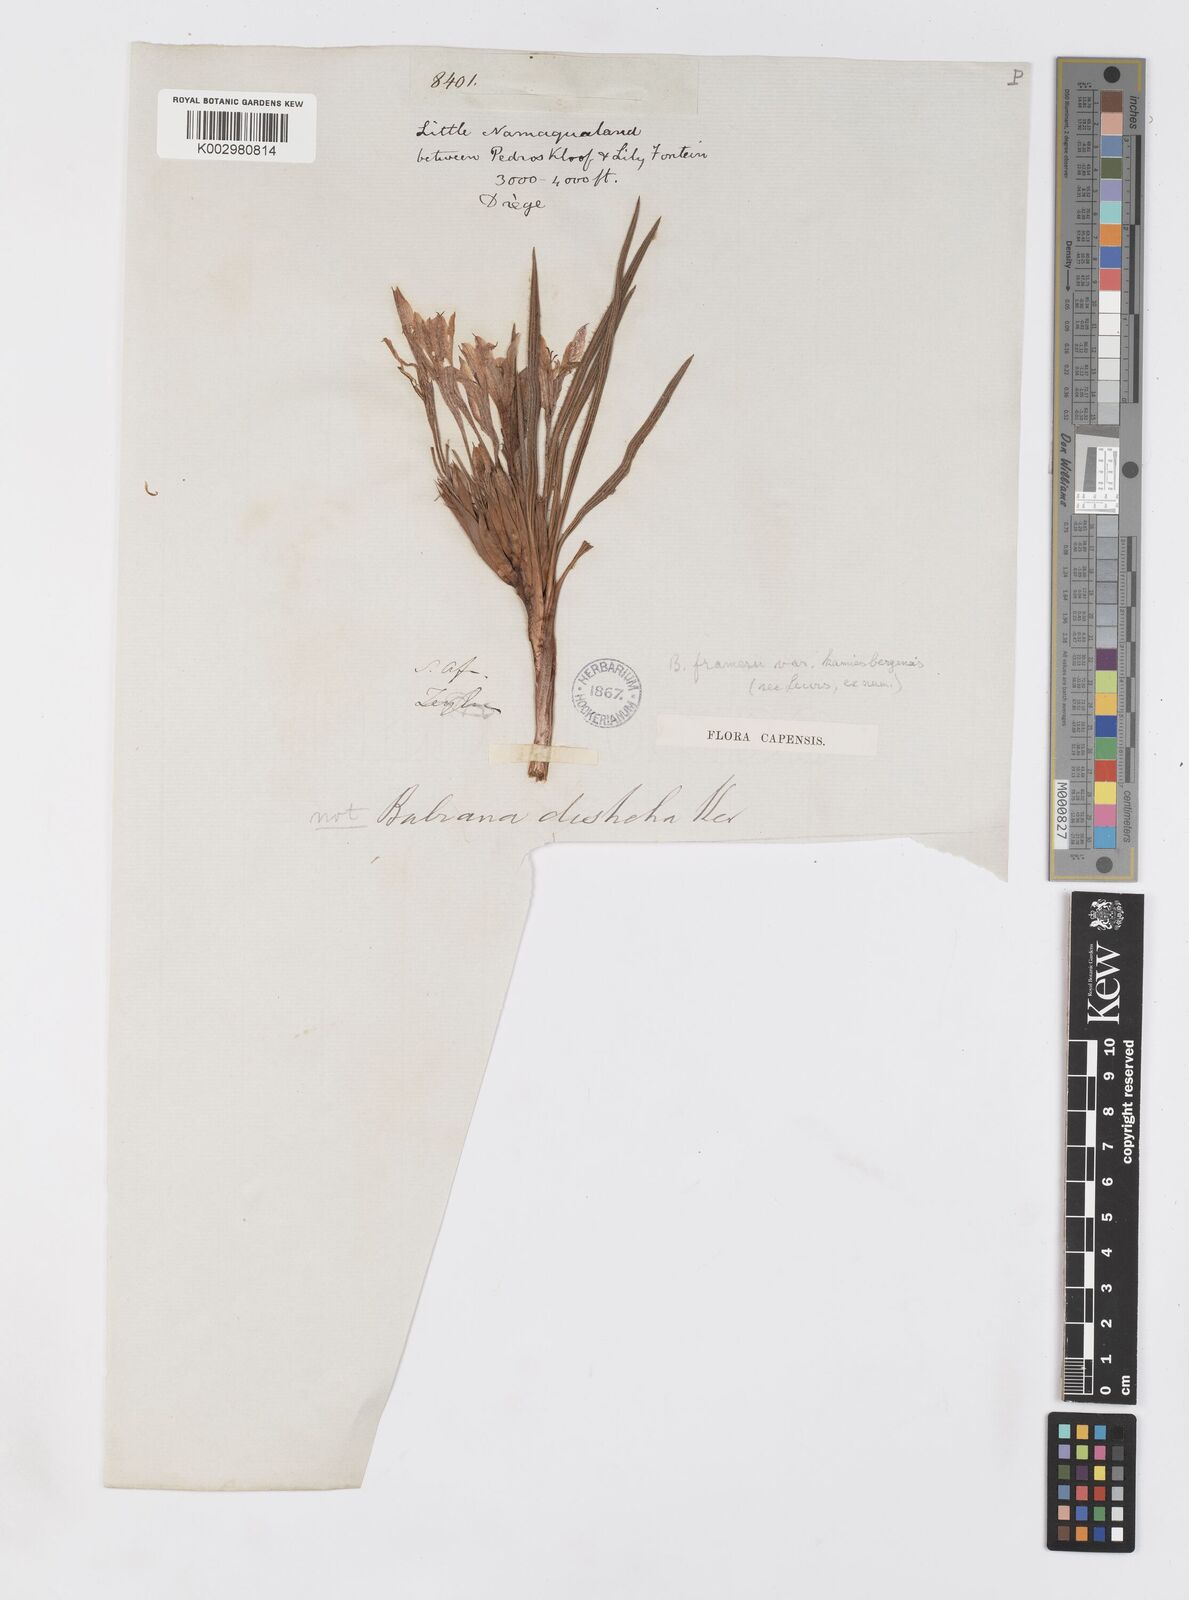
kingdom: Plantae
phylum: Tracheophyta
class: Liliopsida
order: Asparagales
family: Iridaceae
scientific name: Iridaceae
